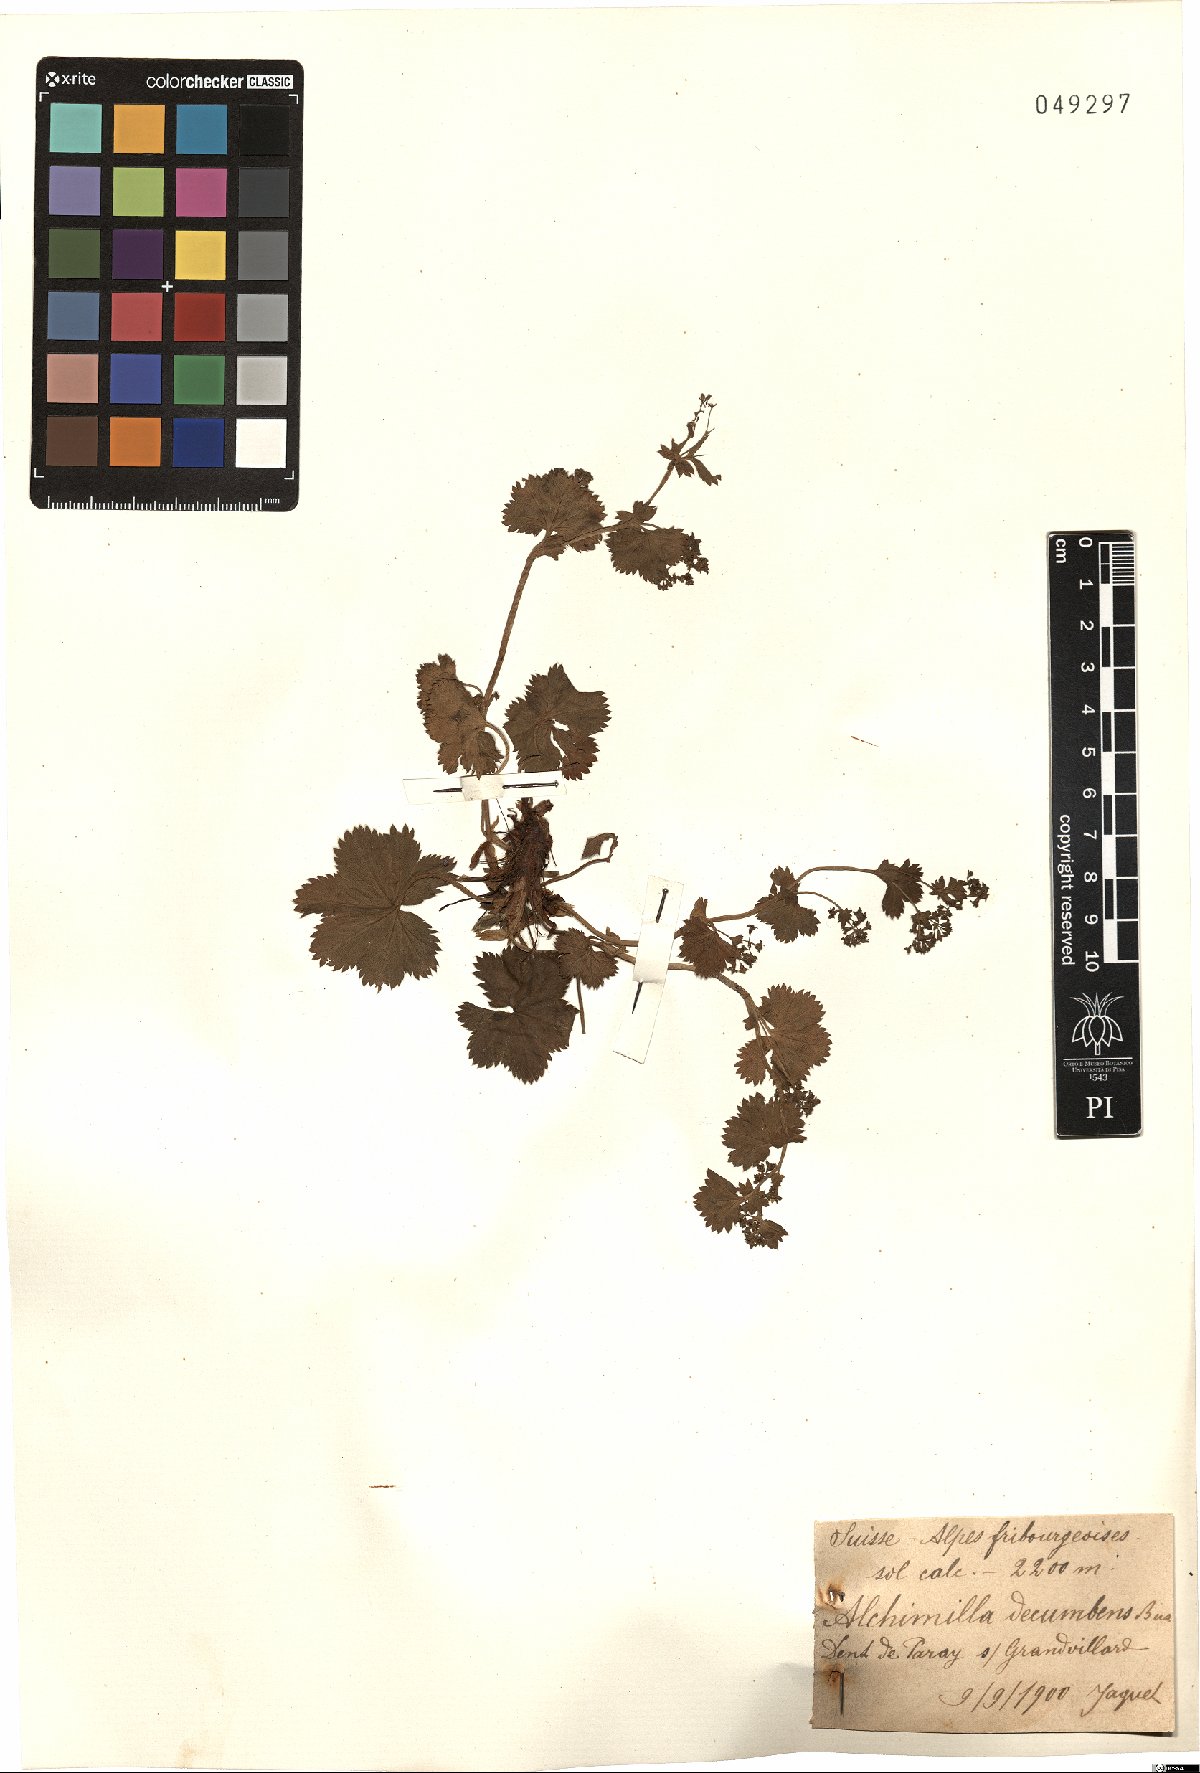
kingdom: Plantae
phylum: Tracheophyta
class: Magnoliopsida
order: Rosales
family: Rosaceae
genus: Alchemilla
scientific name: Alchemilla decumbens
